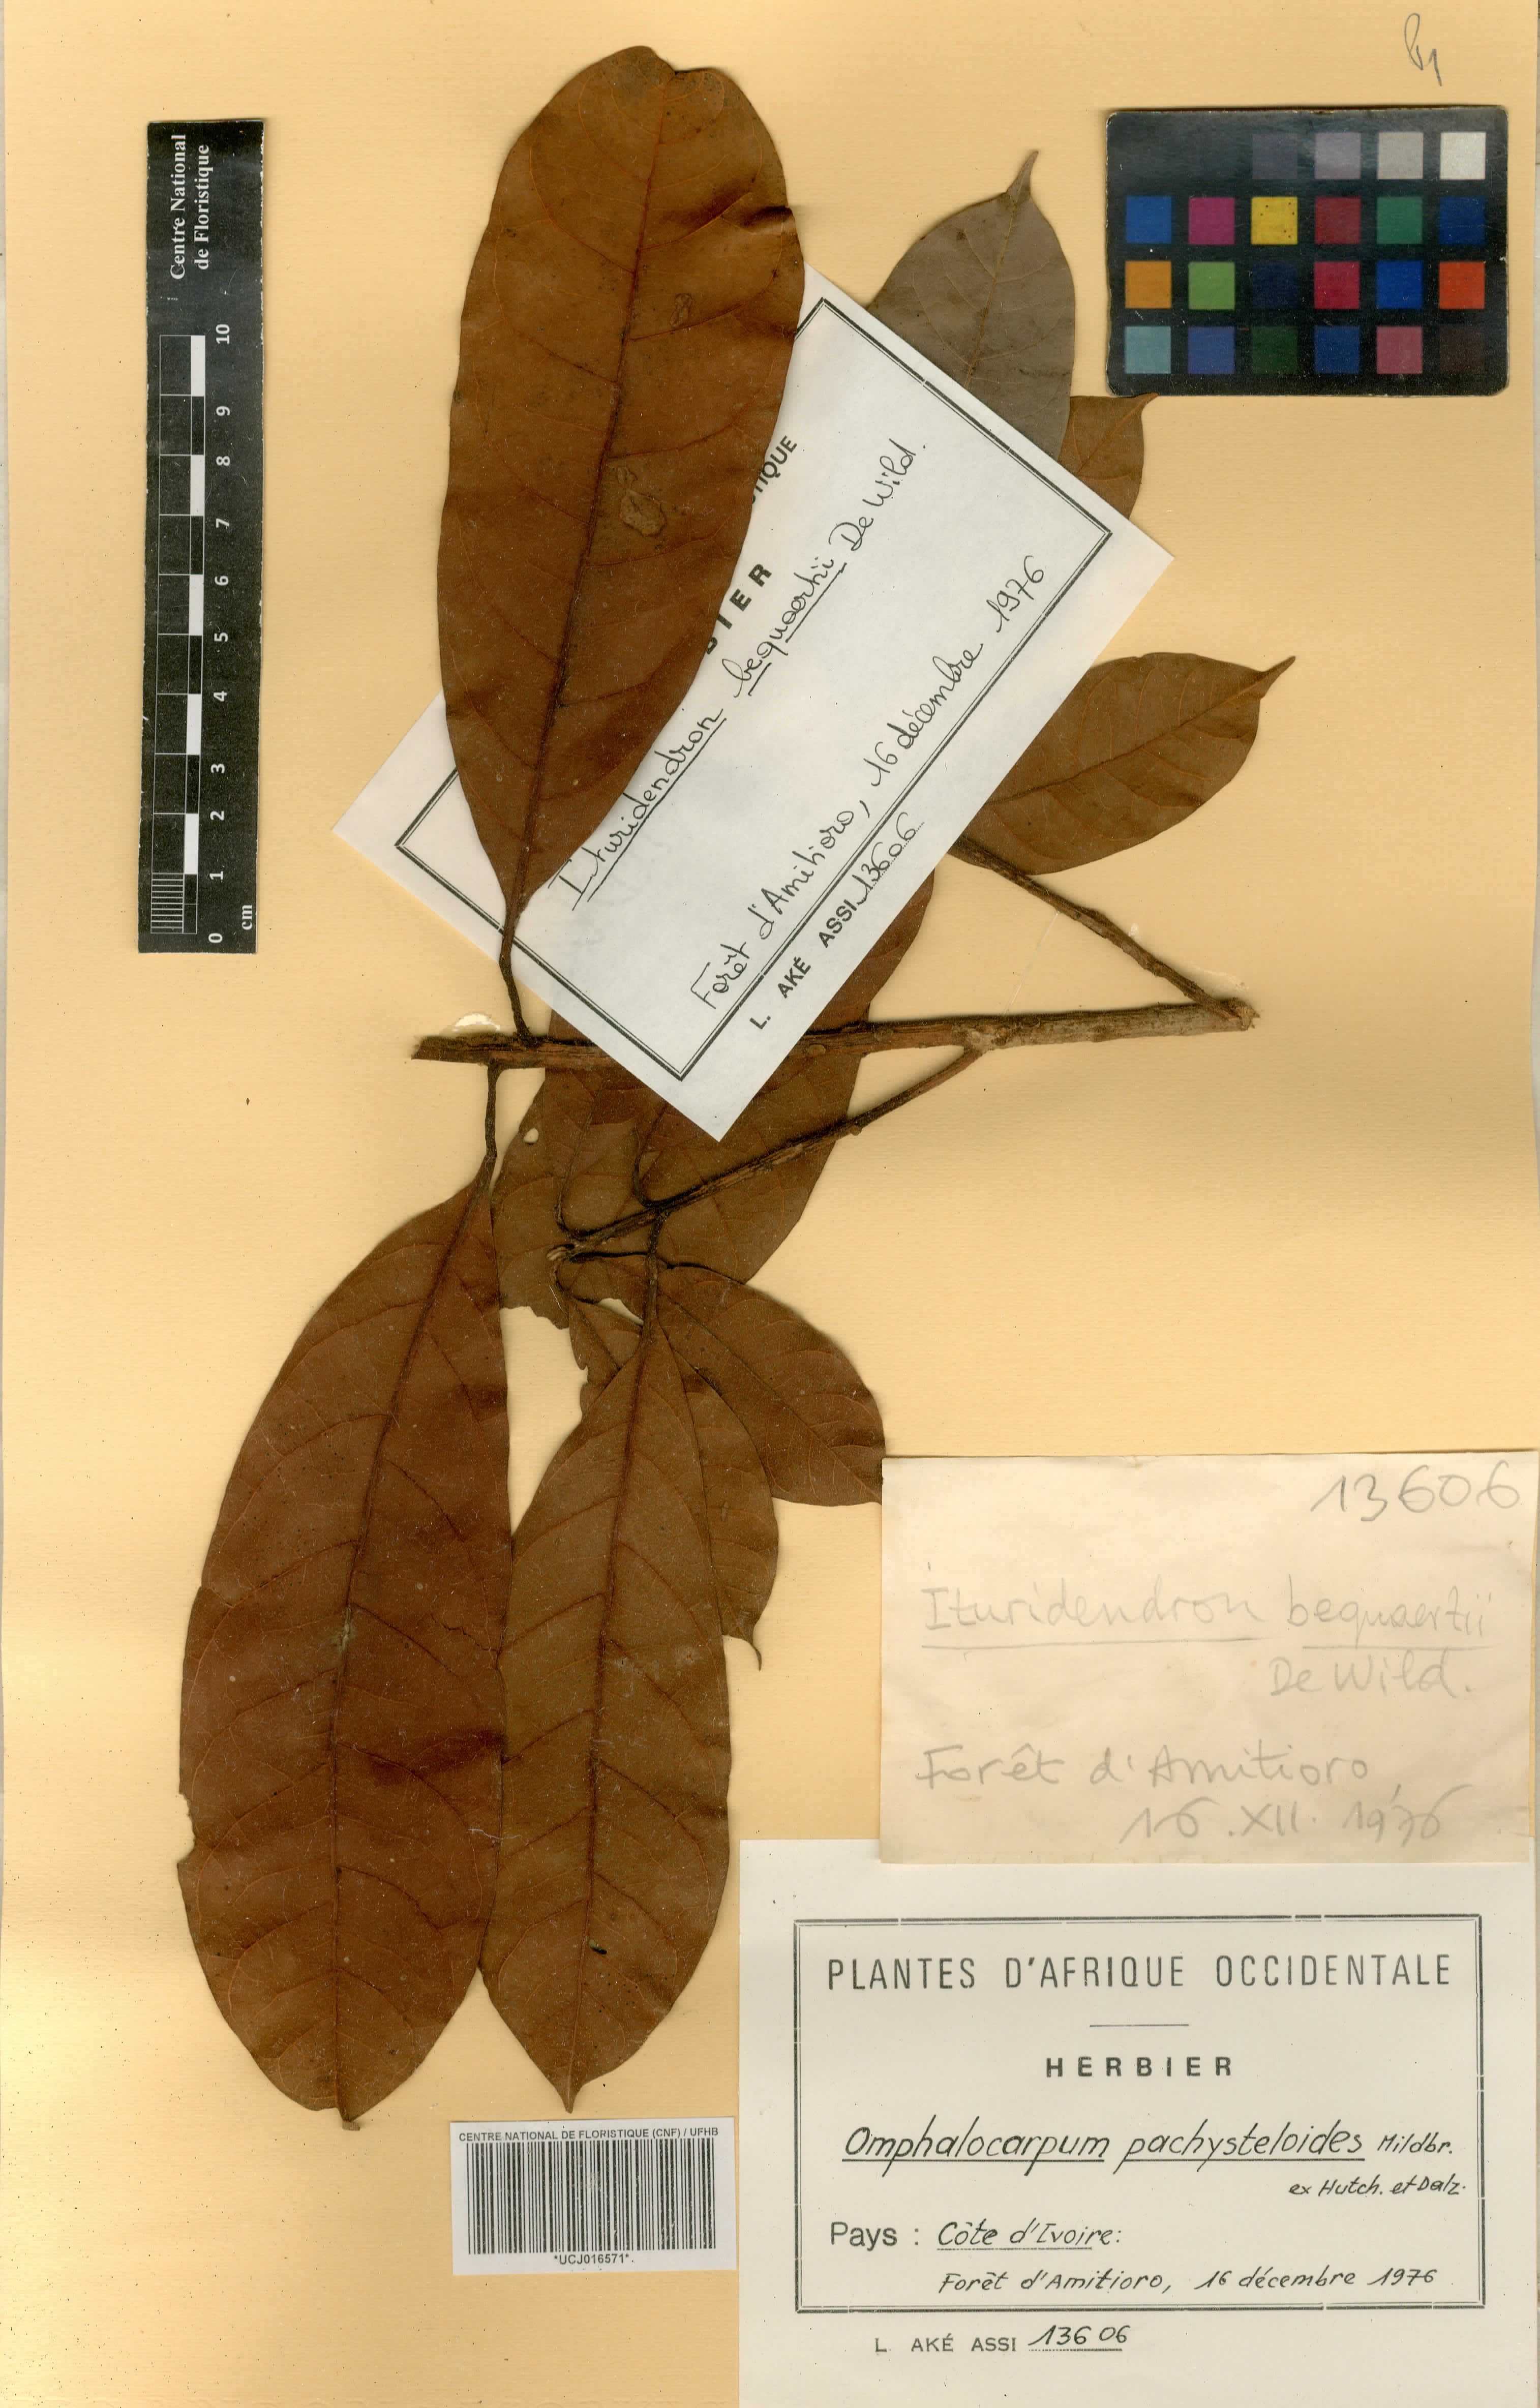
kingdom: Plantae
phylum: Tracheophyta
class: Magnoliopsida
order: Ericales
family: Sapotaceae
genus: Omphalocarpum
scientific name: Omphalocarpum pachysteloides
